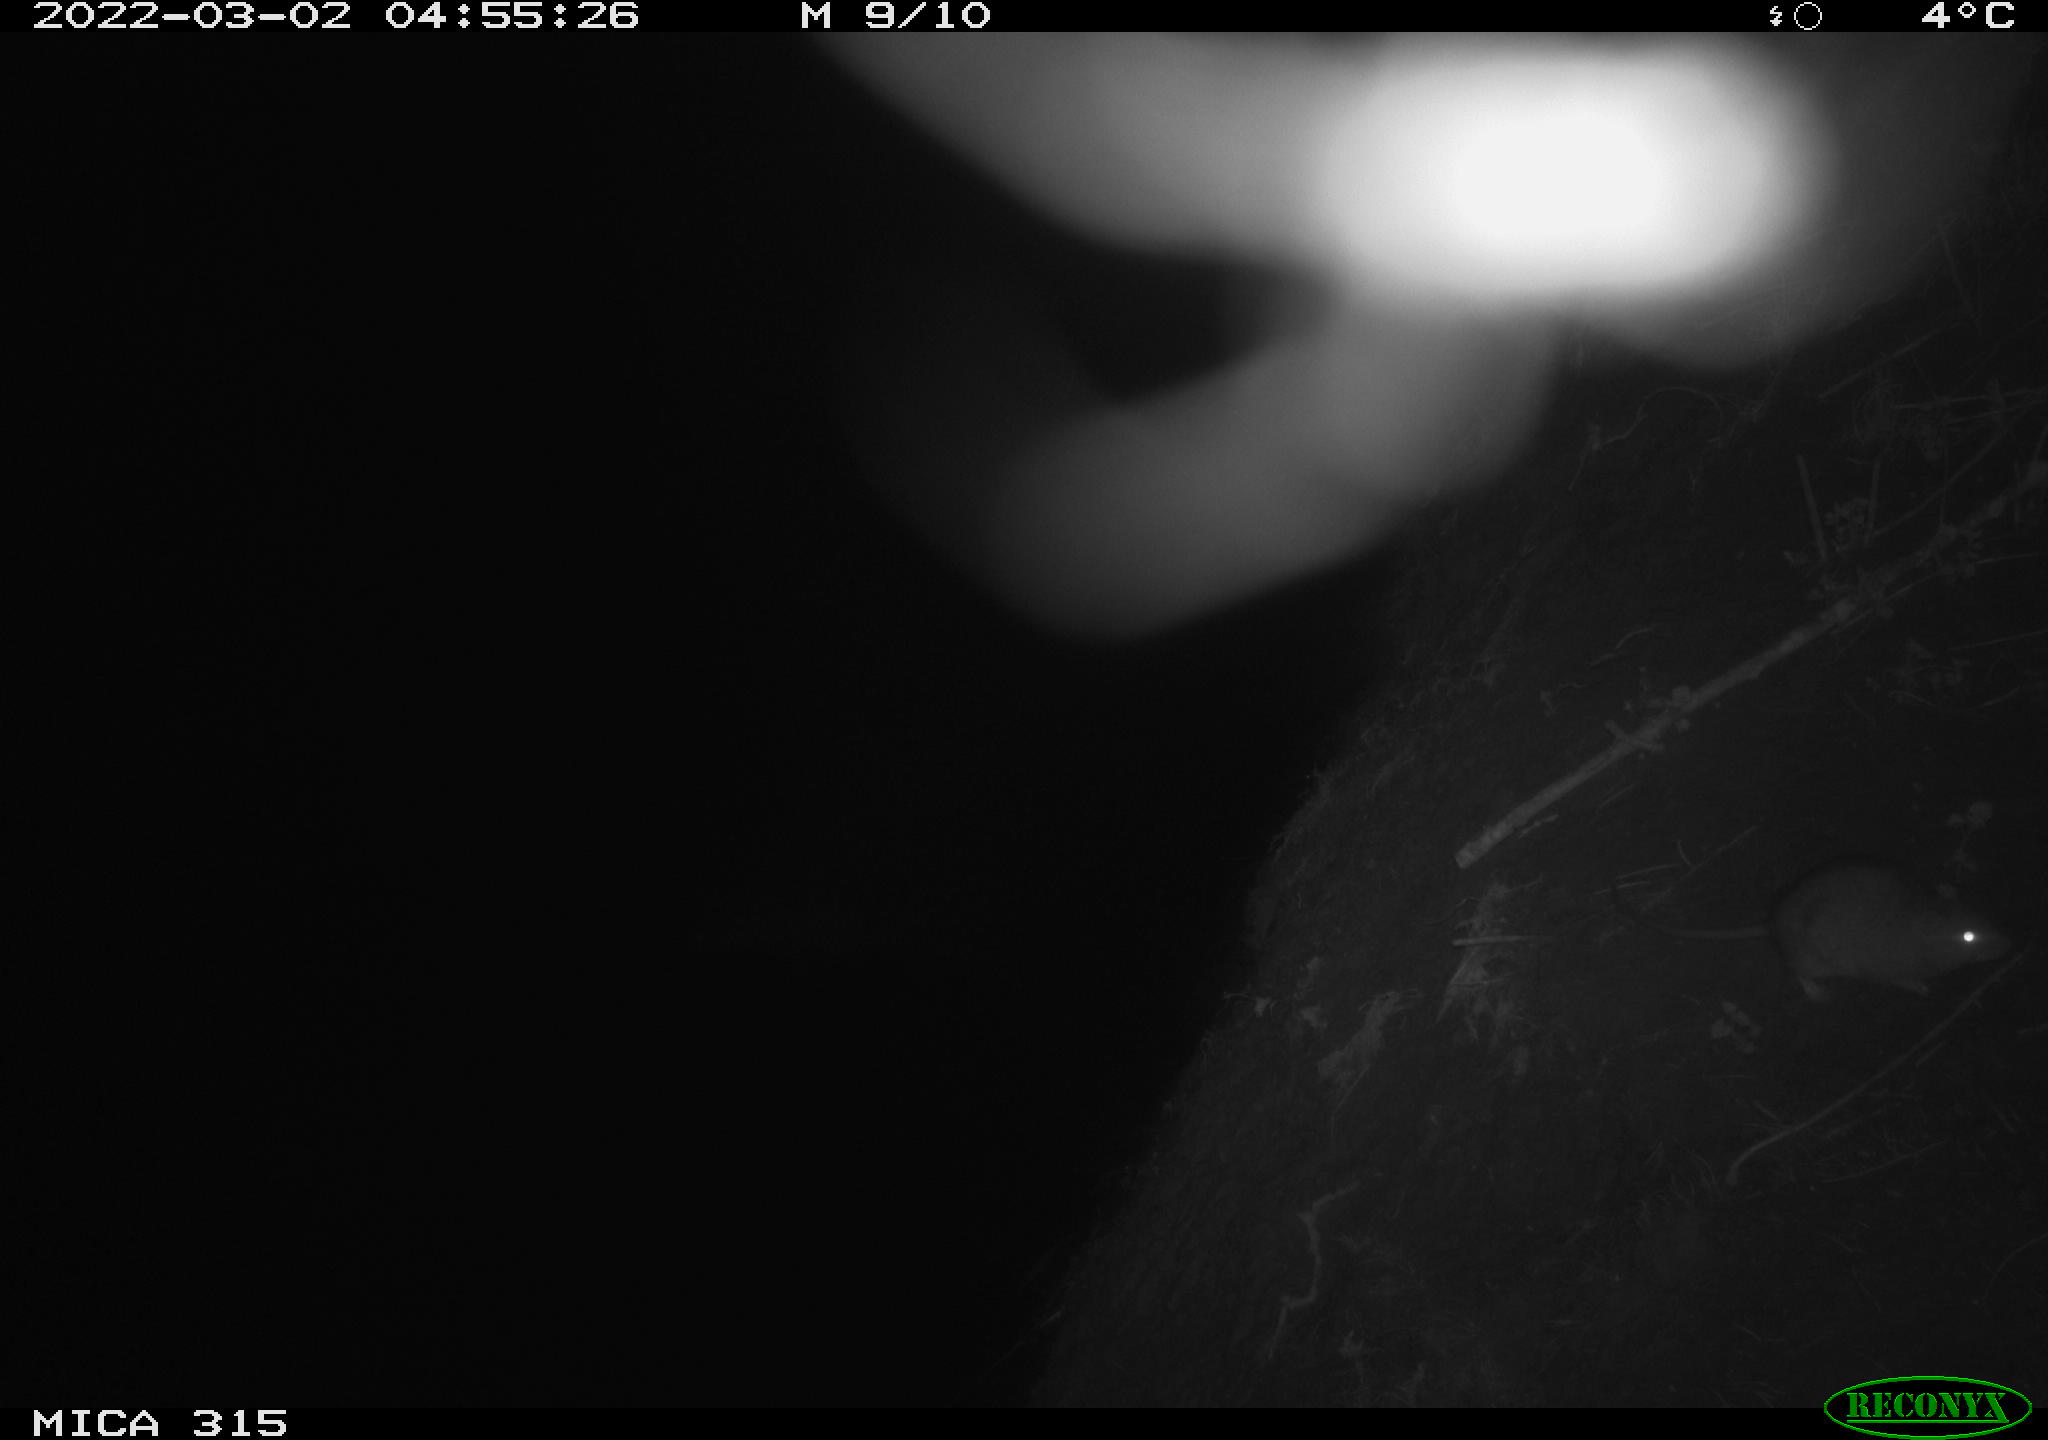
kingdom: Animalia
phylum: Chordata
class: Mammalia
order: Rodentia
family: Muridae
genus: Rattus
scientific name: Rattus norvegicus
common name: Brown rat
